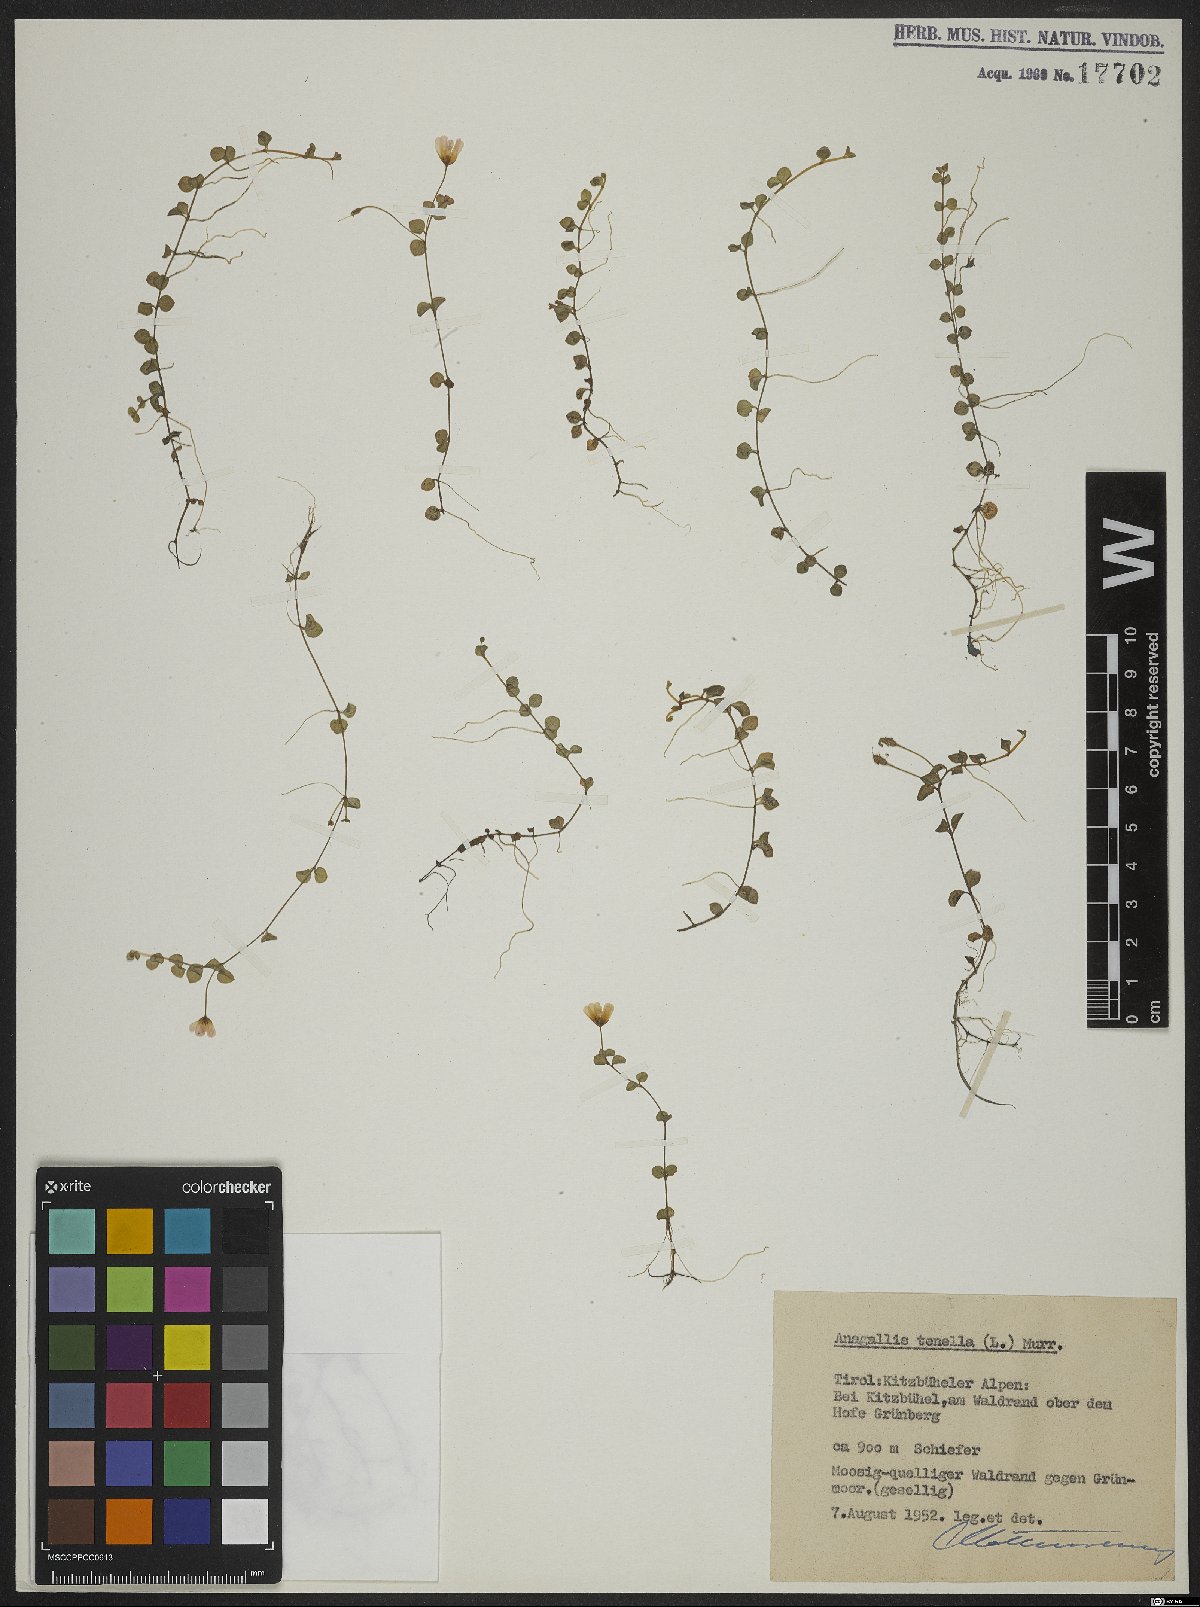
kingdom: Plantae
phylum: Tracheophyta
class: Magnoliopsida
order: Ericales
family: Primulaceae
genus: Lysimachia
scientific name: Lysimachia tenella
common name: European bog pimpernel
